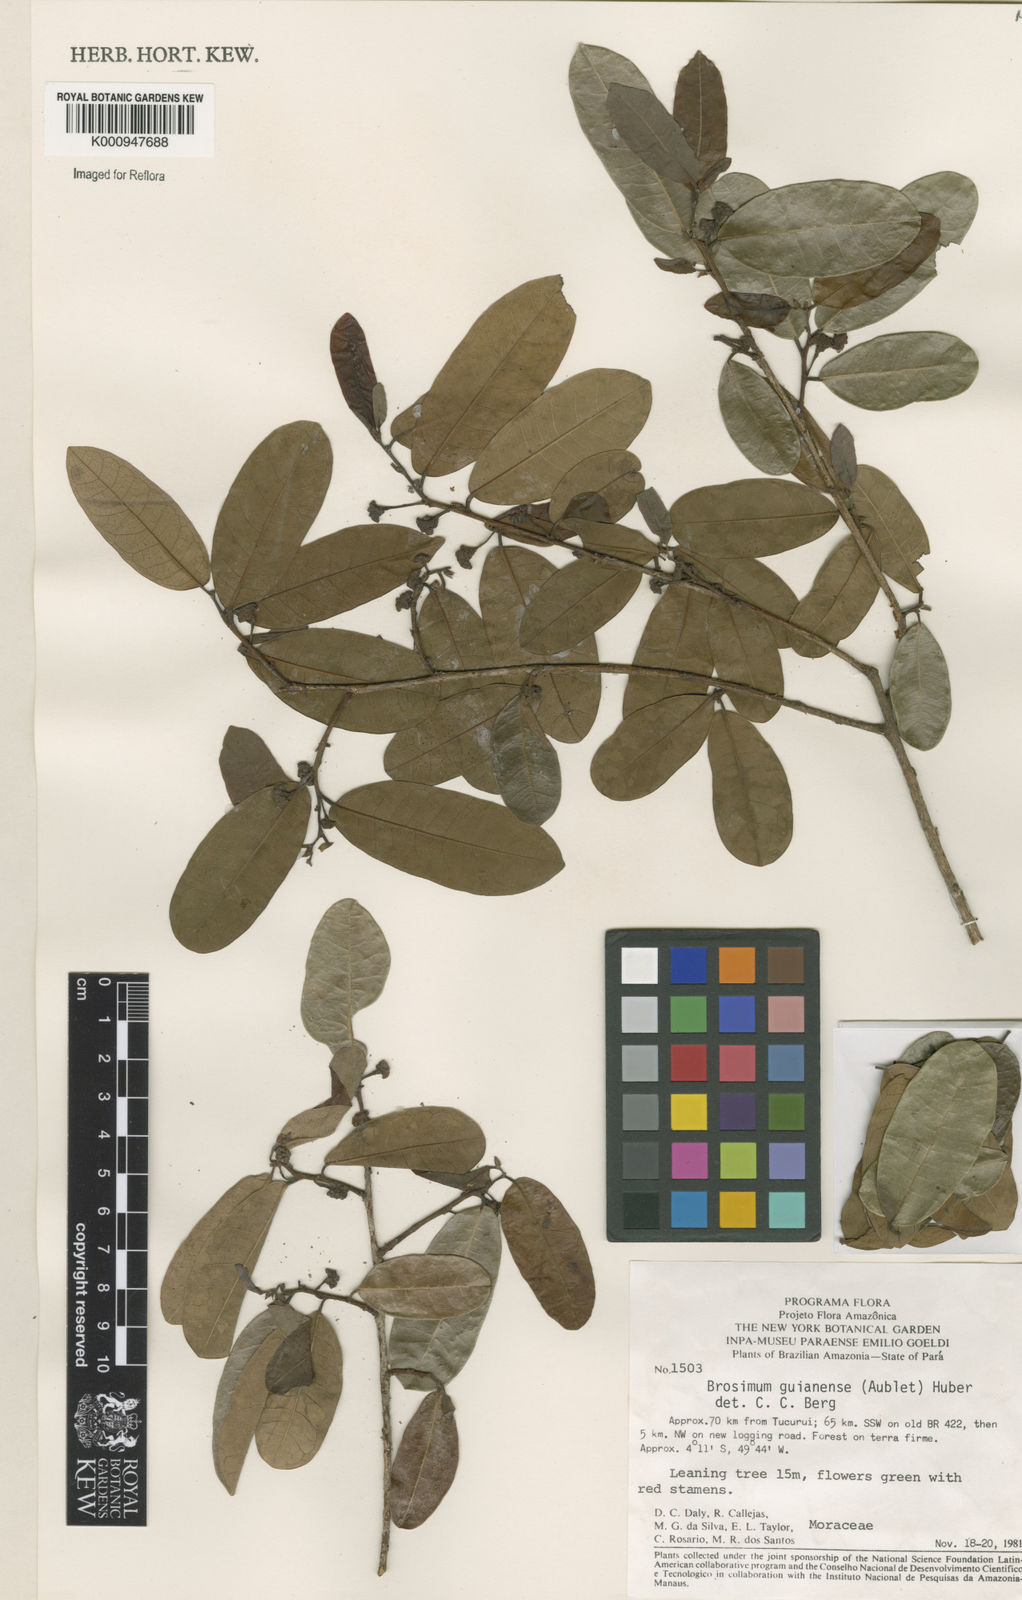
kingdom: Plantae
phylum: Tracheophyta
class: Magnoliopsida
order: Rosales
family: Moraceae
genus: Brosimum
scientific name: Brosimum
